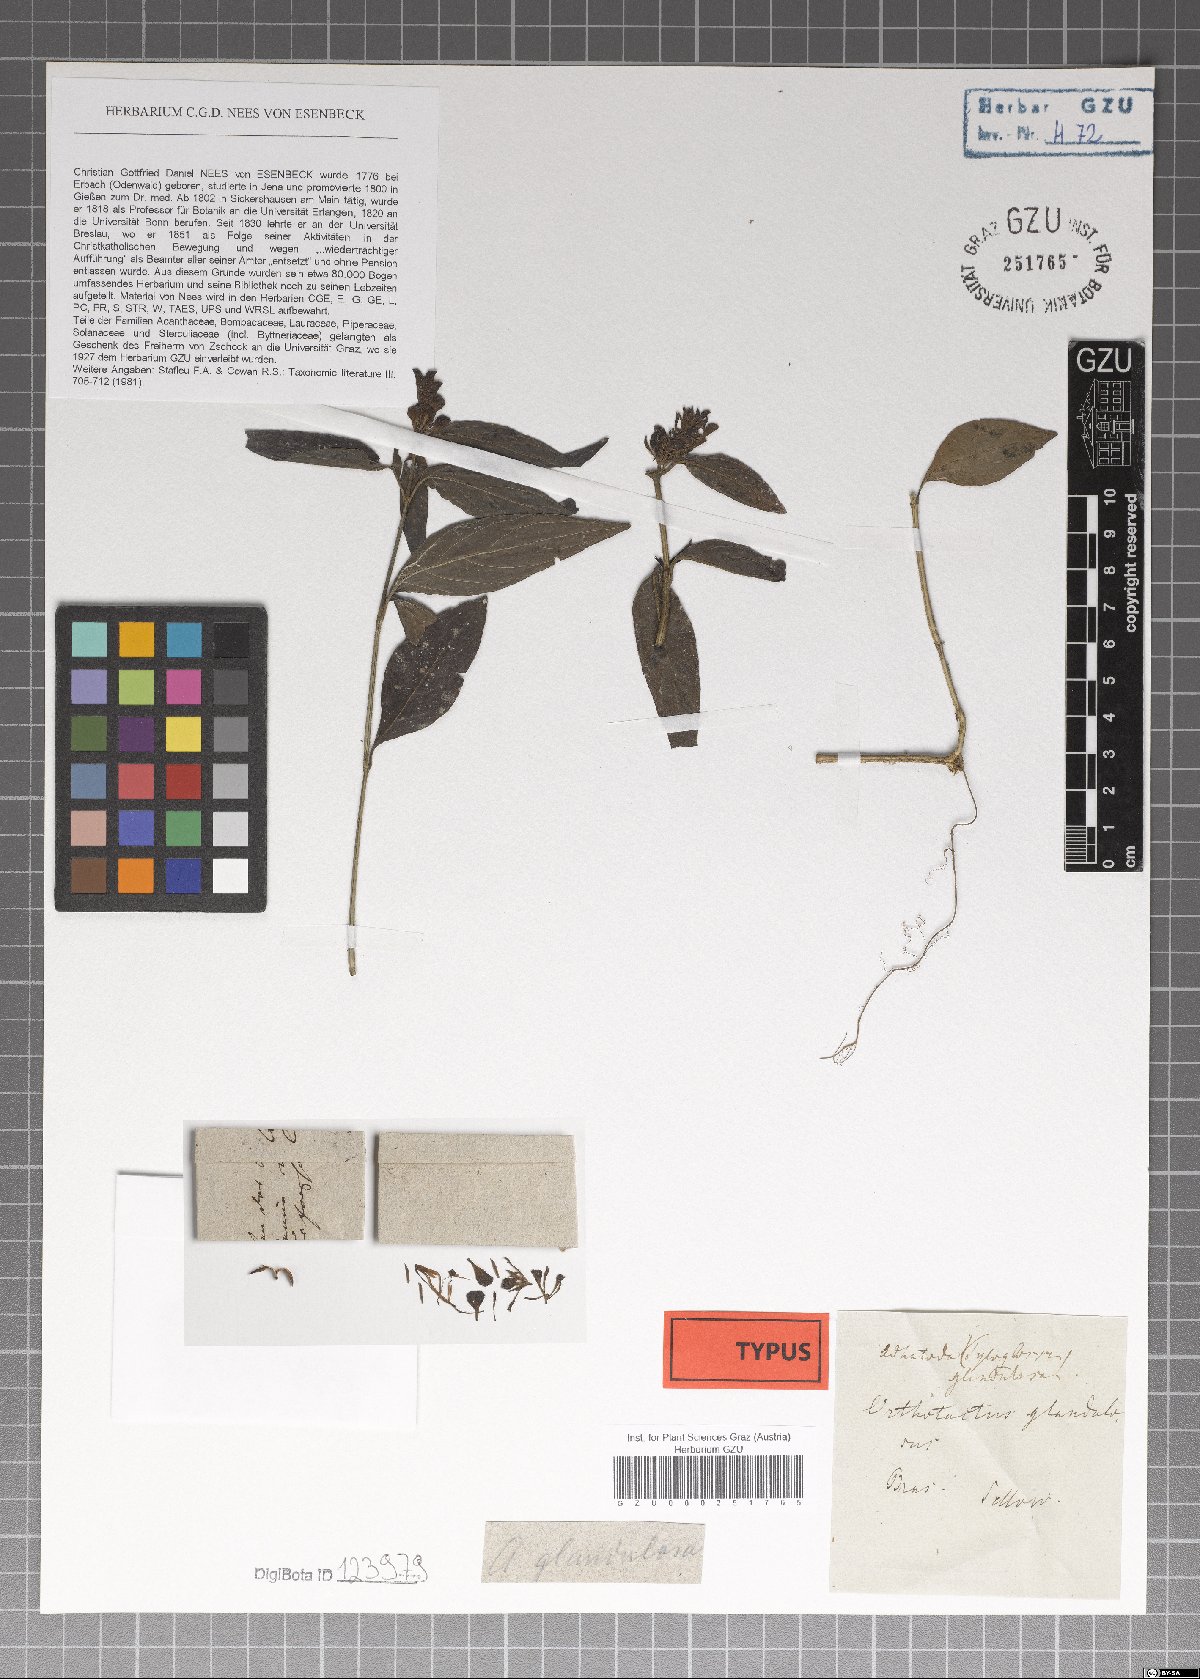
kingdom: Plantae
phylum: Tracheophyta
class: Magnoliopsida
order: Lamiales
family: Acanthaceae
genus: Poikilacanthus
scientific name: Poikilacanthus glandulosus
